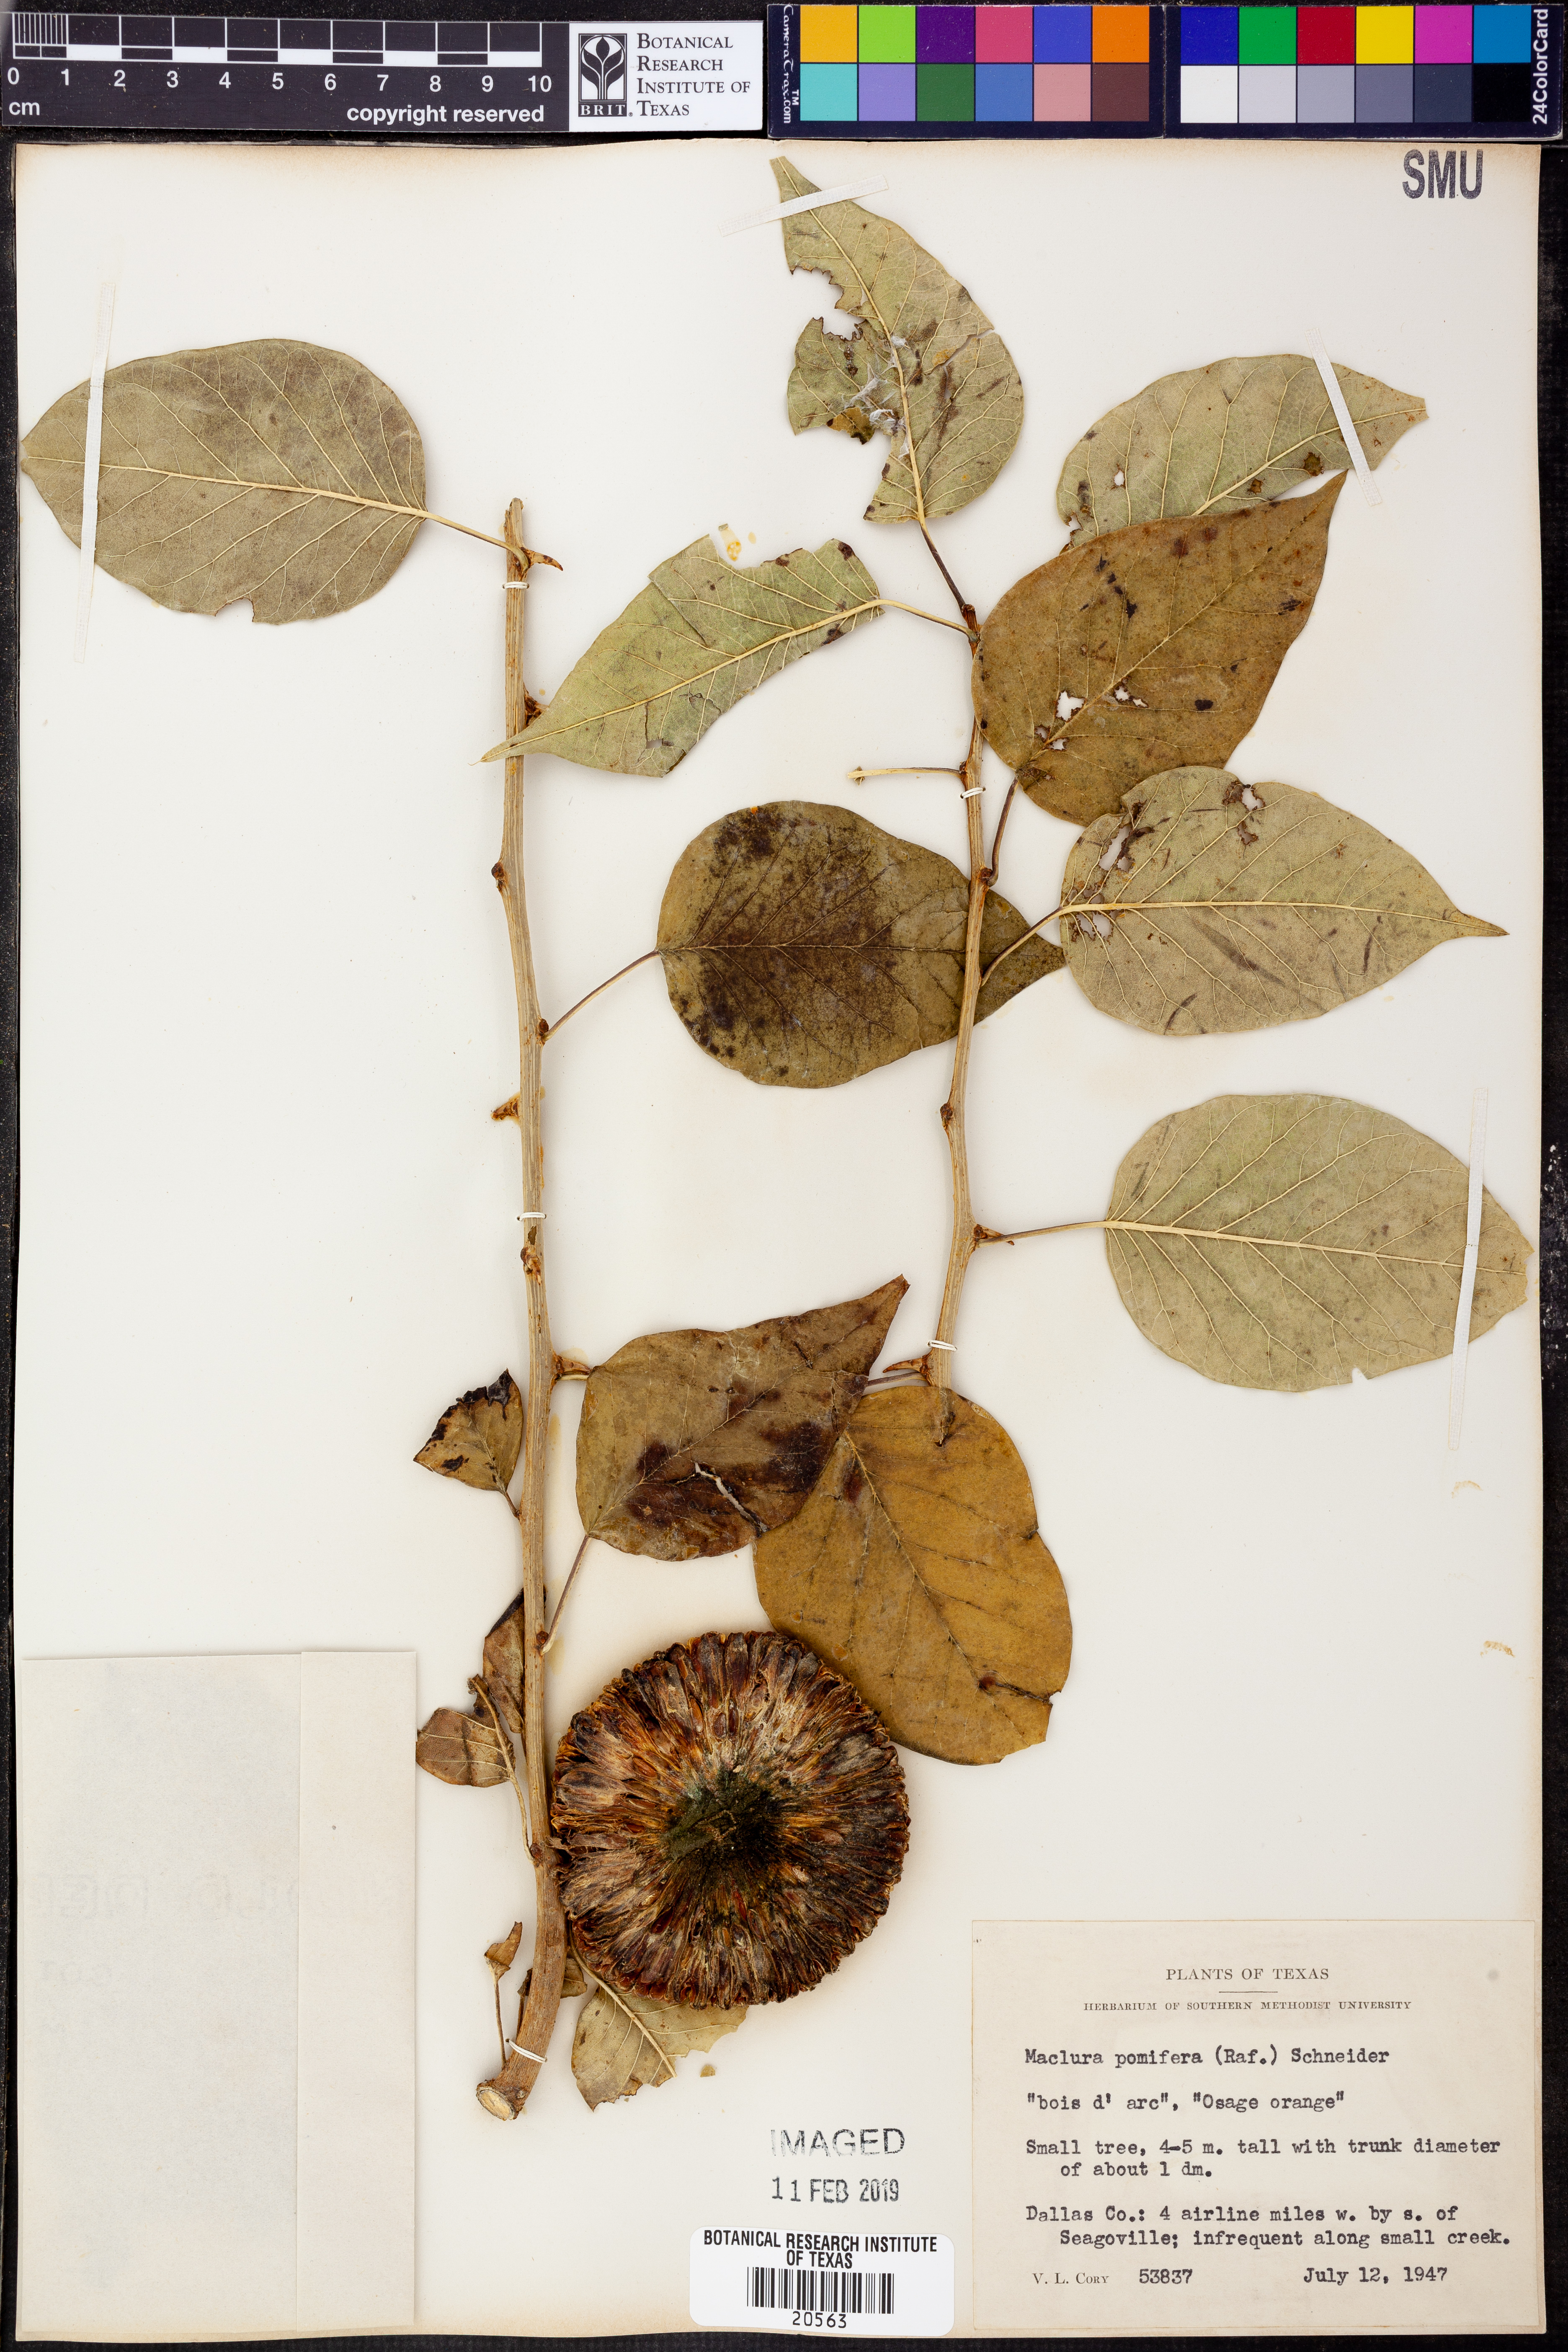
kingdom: Plantae
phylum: Tracheophyta
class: Magnoliopsida
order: Rosales
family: Moraceae
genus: Maclura
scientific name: Maclura pomifera
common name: Osage-orange
